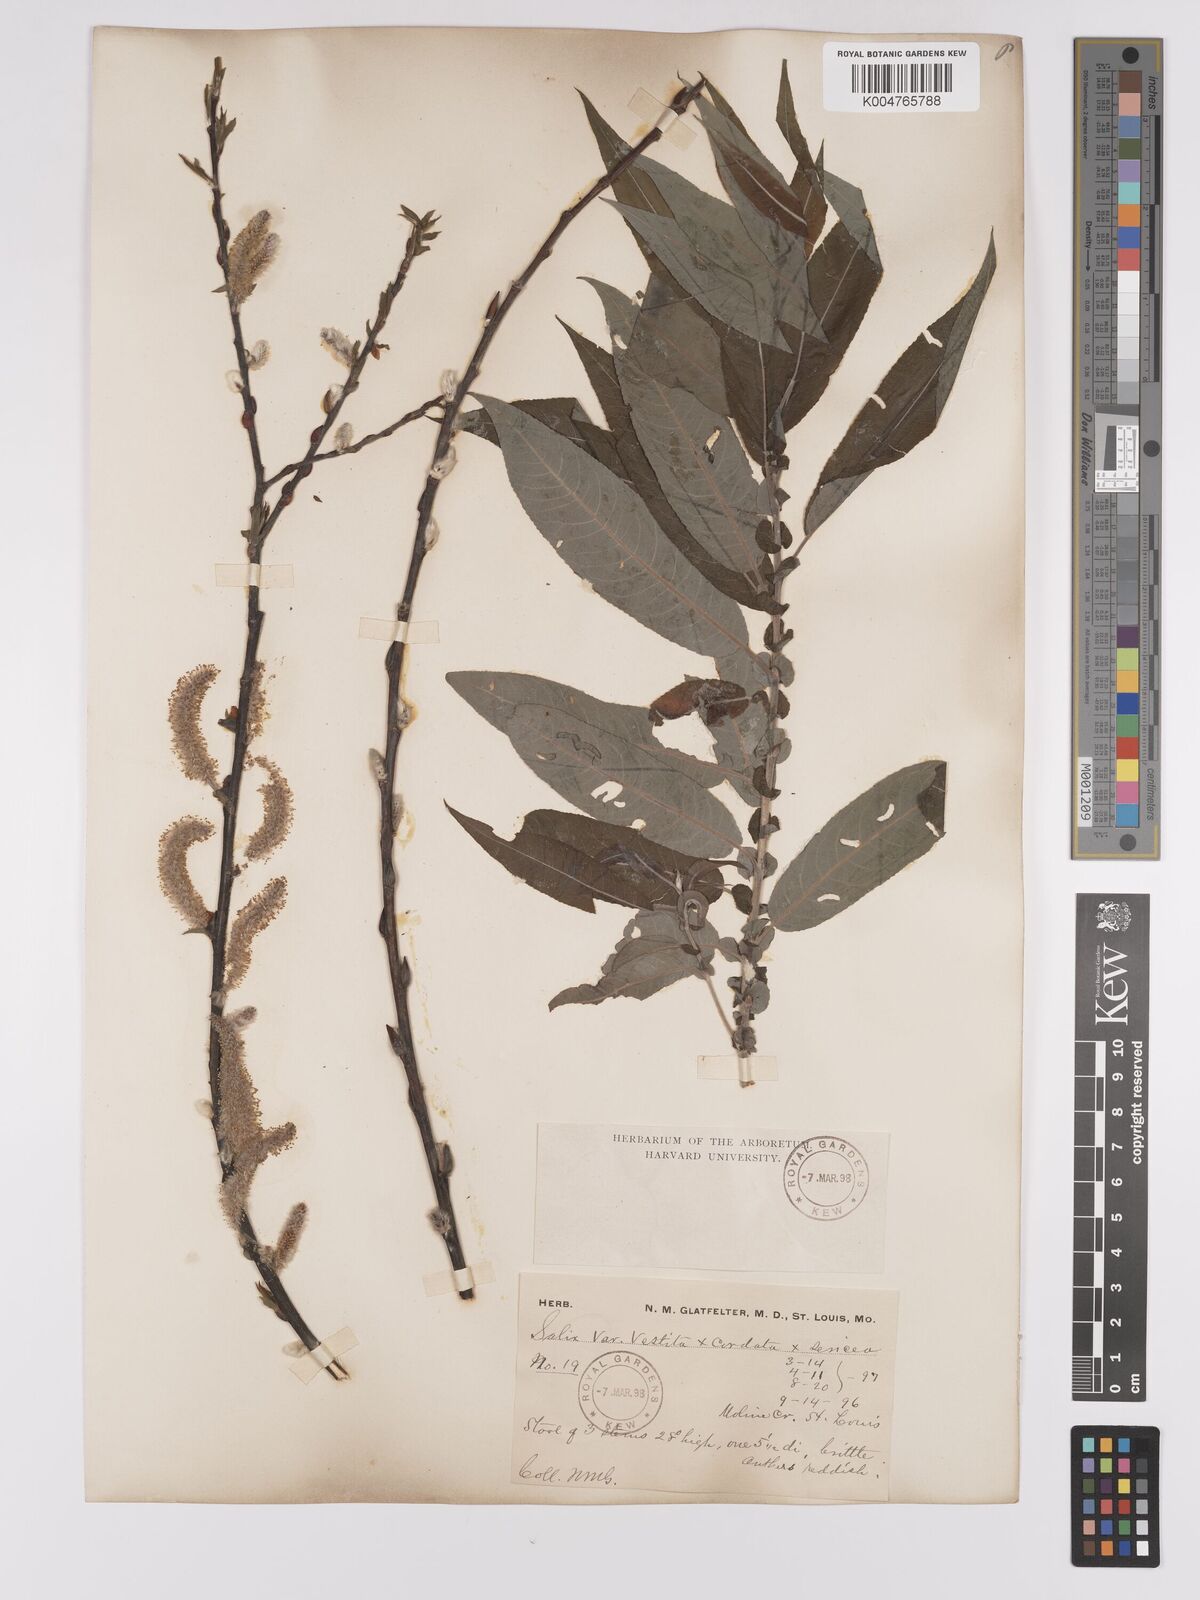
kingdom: Plantae
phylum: Tracheophyta
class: Magnoliopsida
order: Malpighiales
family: Salicaceae
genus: Salix
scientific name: Salix vestita
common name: Hairy willow
